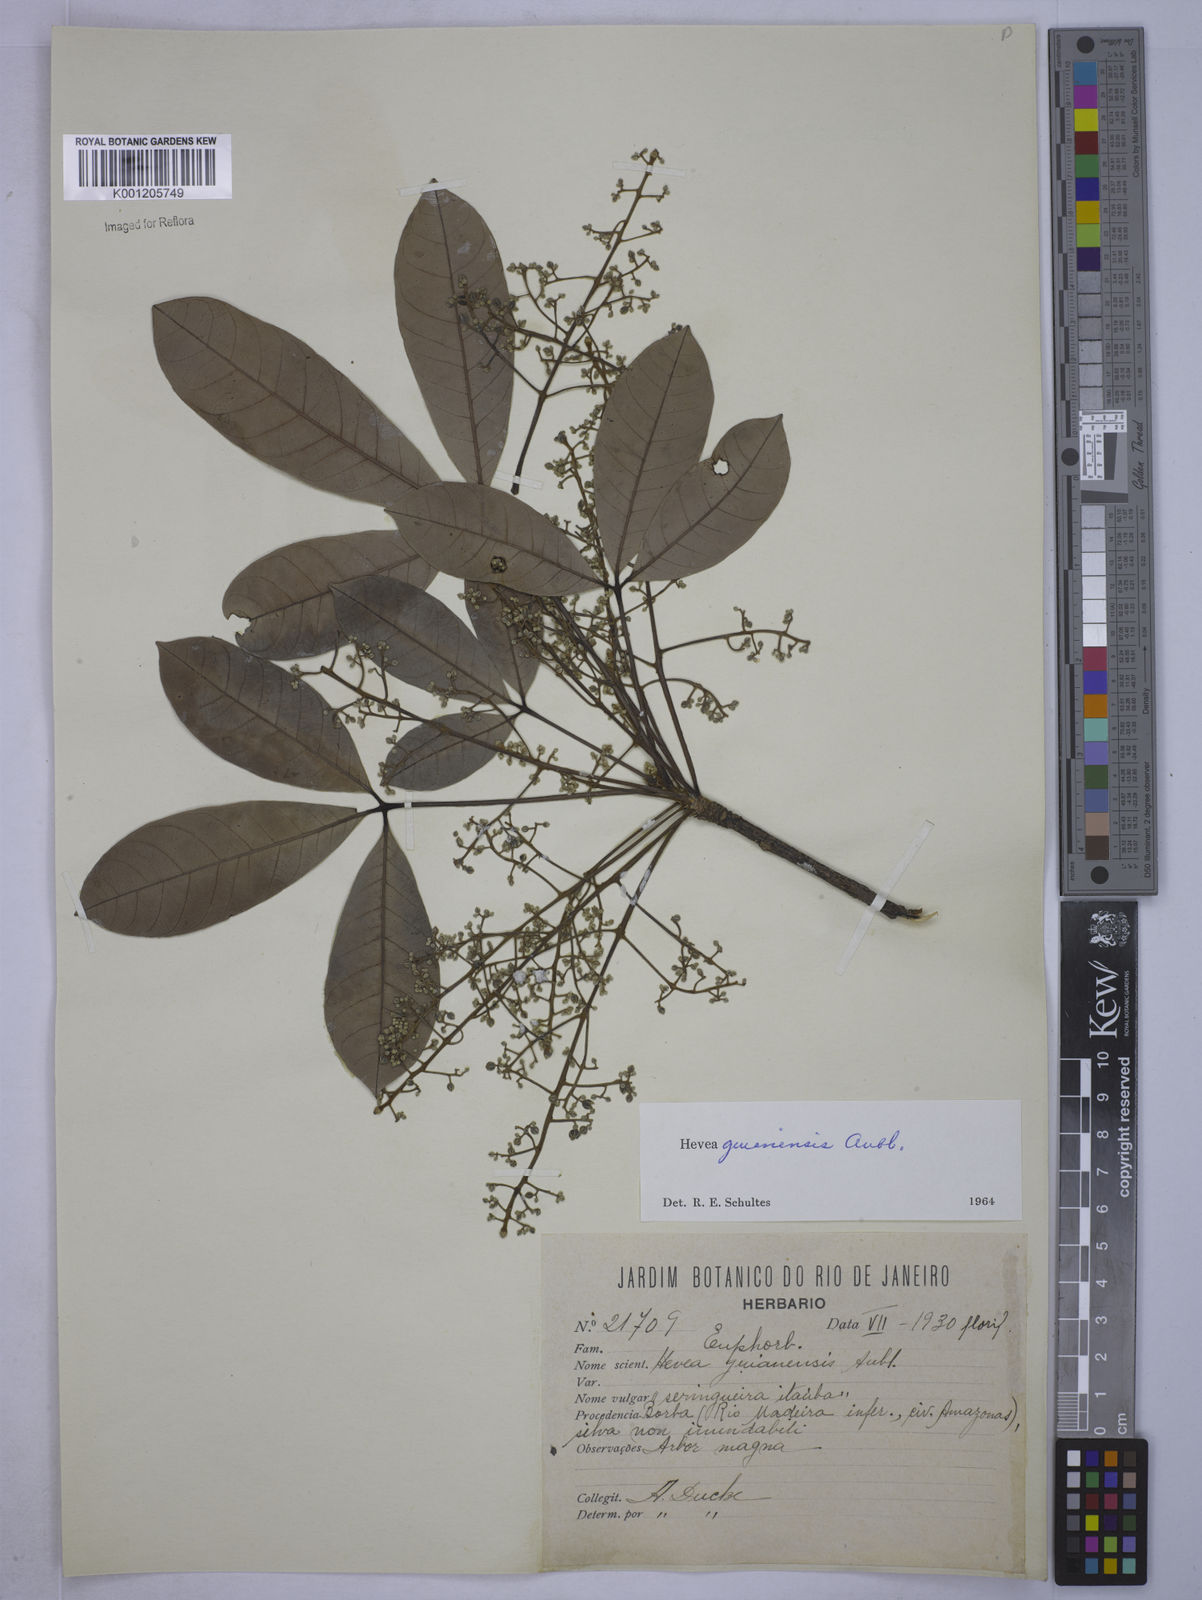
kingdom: Plantae
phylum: Tracheophyta
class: Magnoliopsida
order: Malpighiales
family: Euphorbiaceae
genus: Hevea
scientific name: Hevea guianensis
